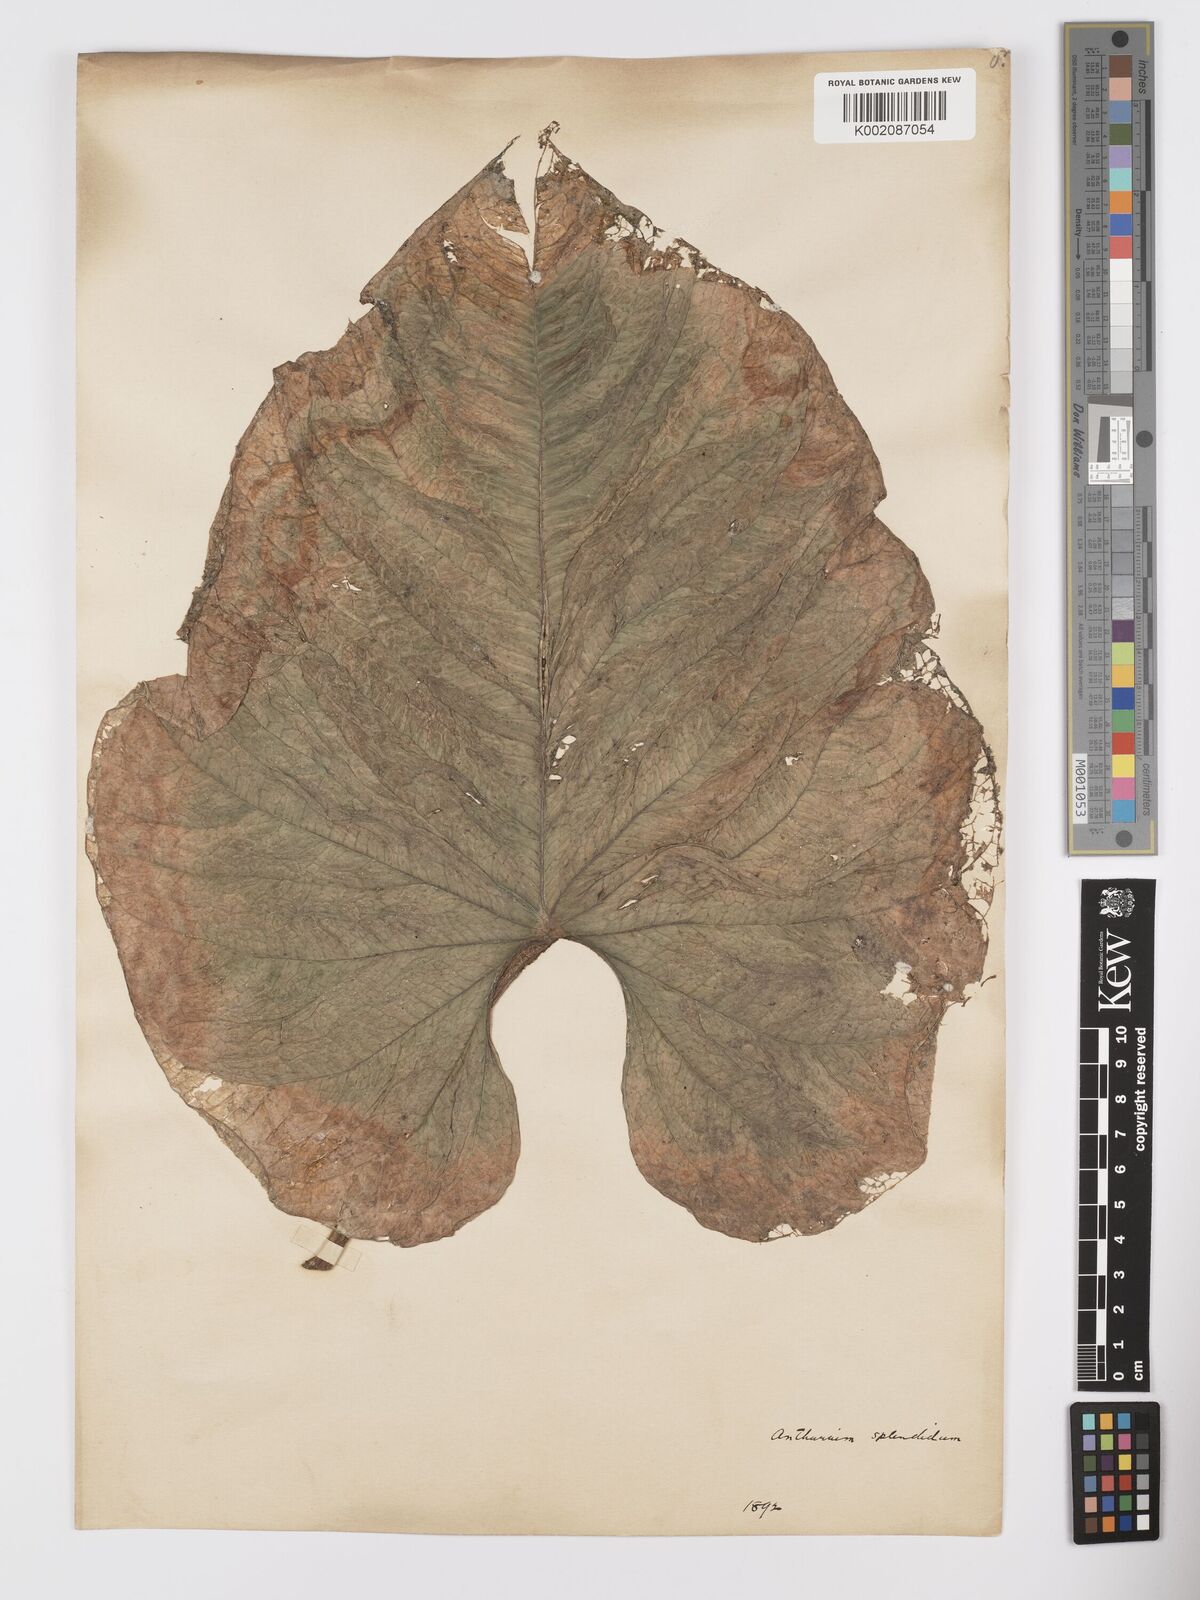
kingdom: Plantae
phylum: Tracheophyta
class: Liliopsida
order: Alismatales
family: Araceae
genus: Anthurium
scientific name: Anthurium splendidum
